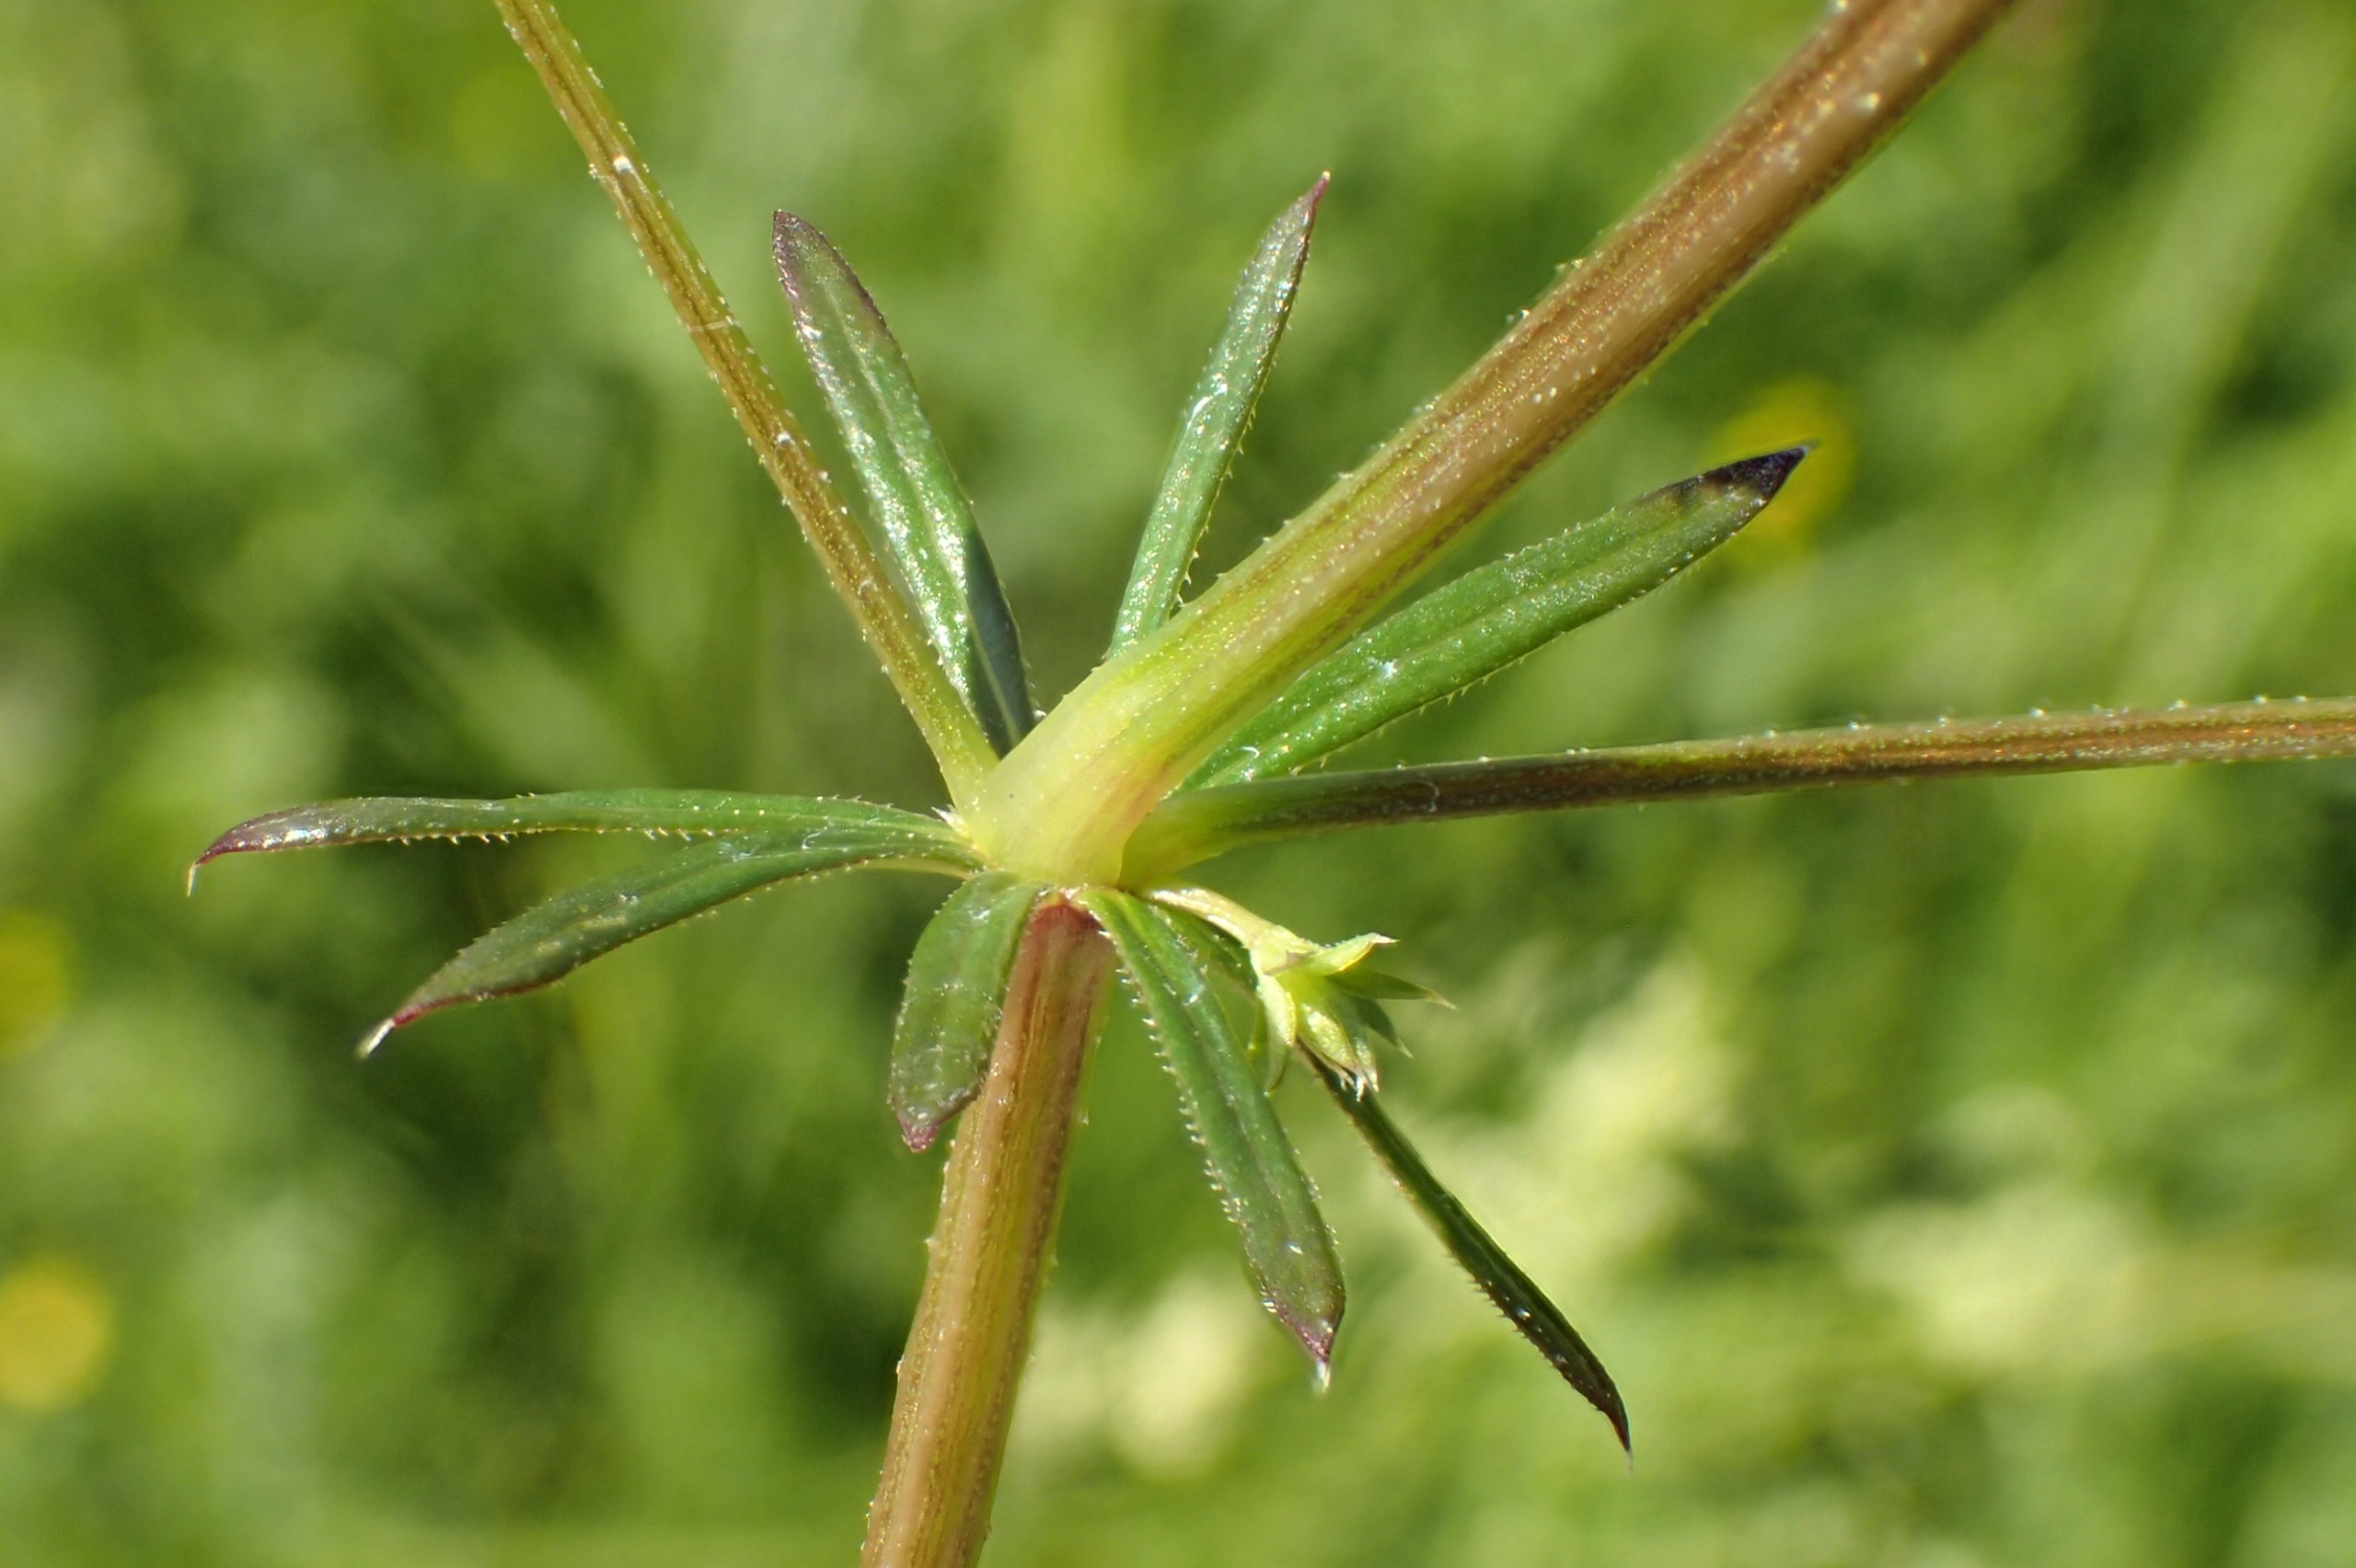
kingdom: Plantae
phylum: Tracheophyta
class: Magnoliopsida
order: Gentianales
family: Rubiaceae
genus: Galium
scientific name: Galium uliginosum
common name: Sump-snerre
